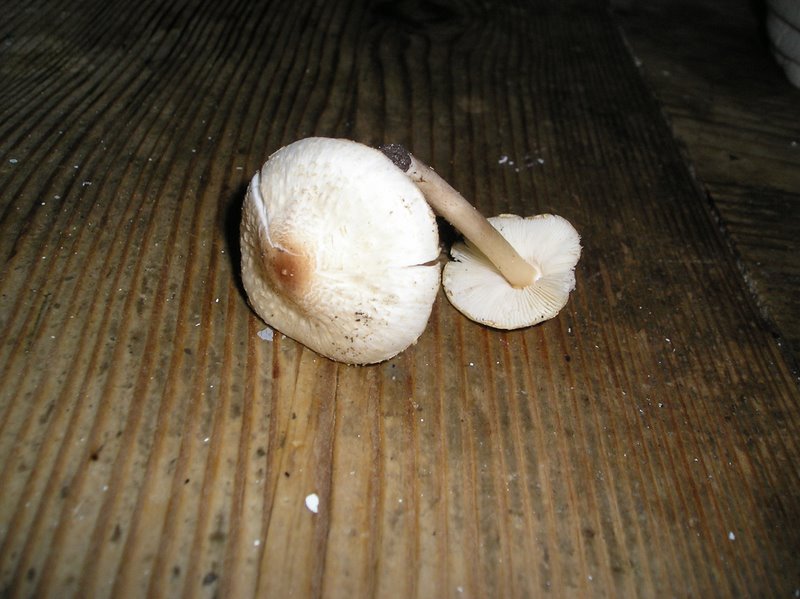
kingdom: Fungi
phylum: Basidiomycota
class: Agaricomycetes
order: Agaricales
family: Agaricaceae
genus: Lepiota
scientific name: Lepiota cristata
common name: stinkende parasolhat
